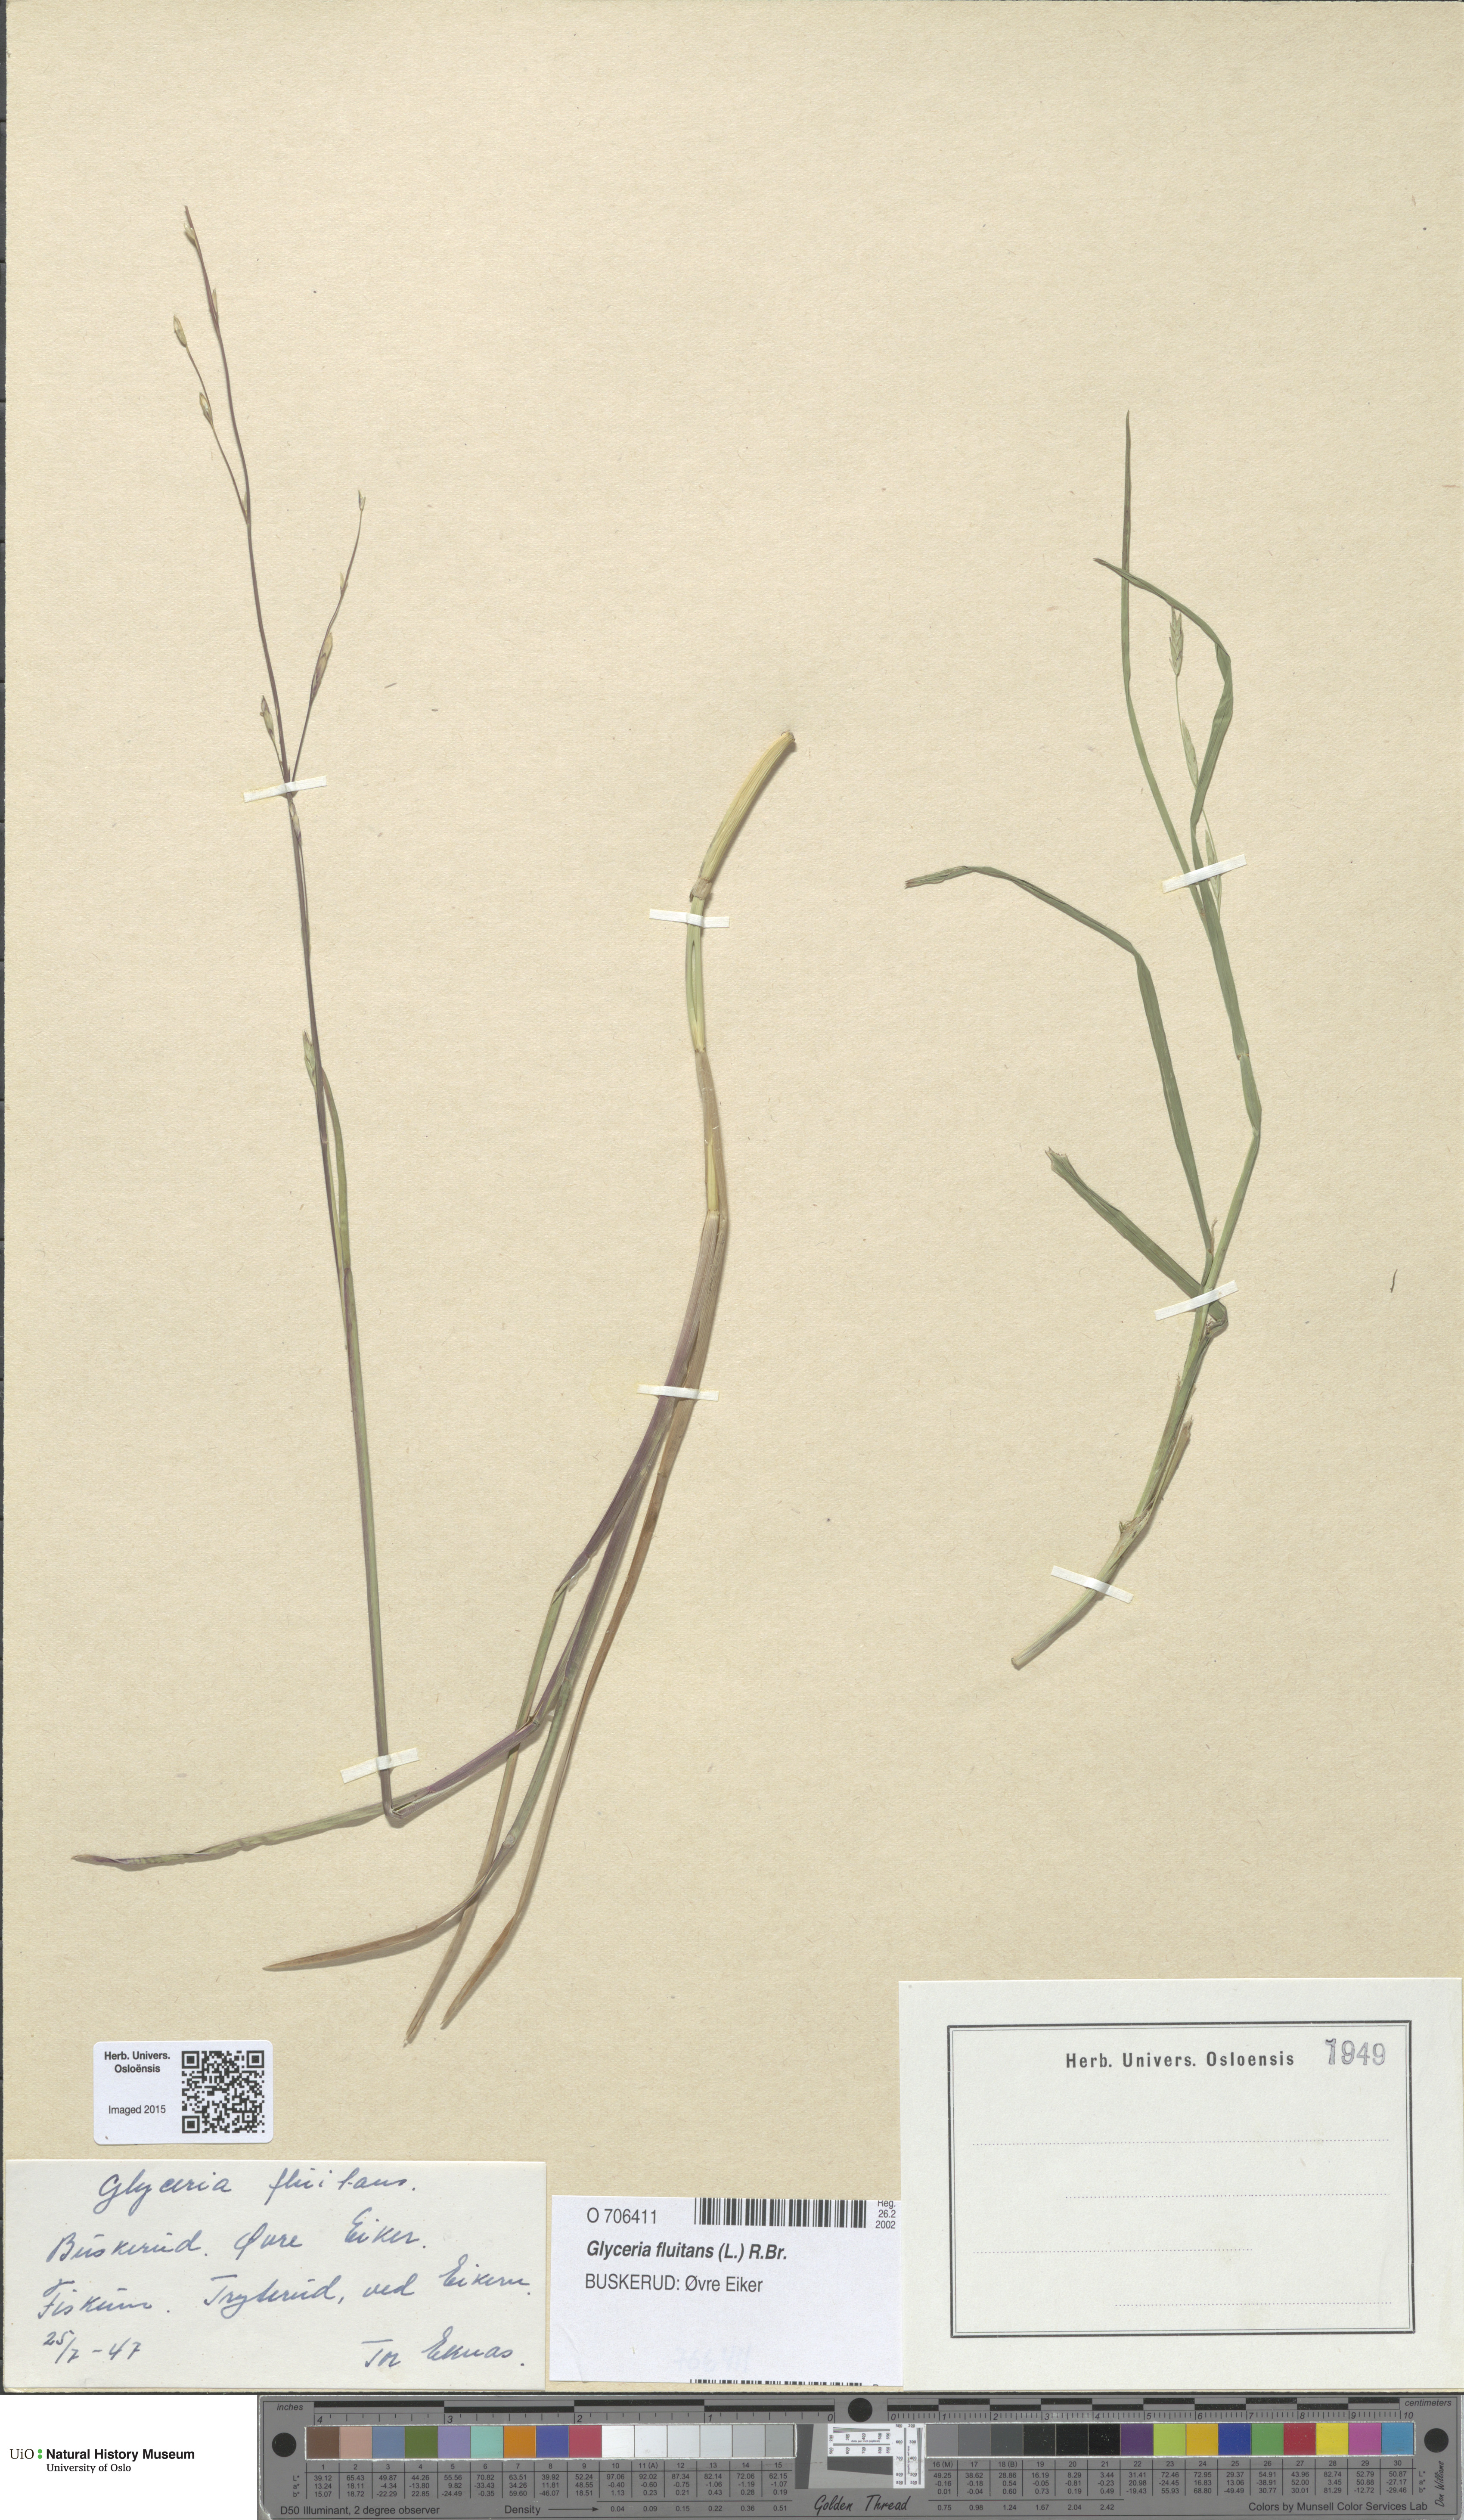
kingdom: Plantae
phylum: Tracheophyta
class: Liliopsida
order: Poales
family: Poaceae
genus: Glyceria
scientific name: Glyceria fluitans
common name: Floating sweet-grass
